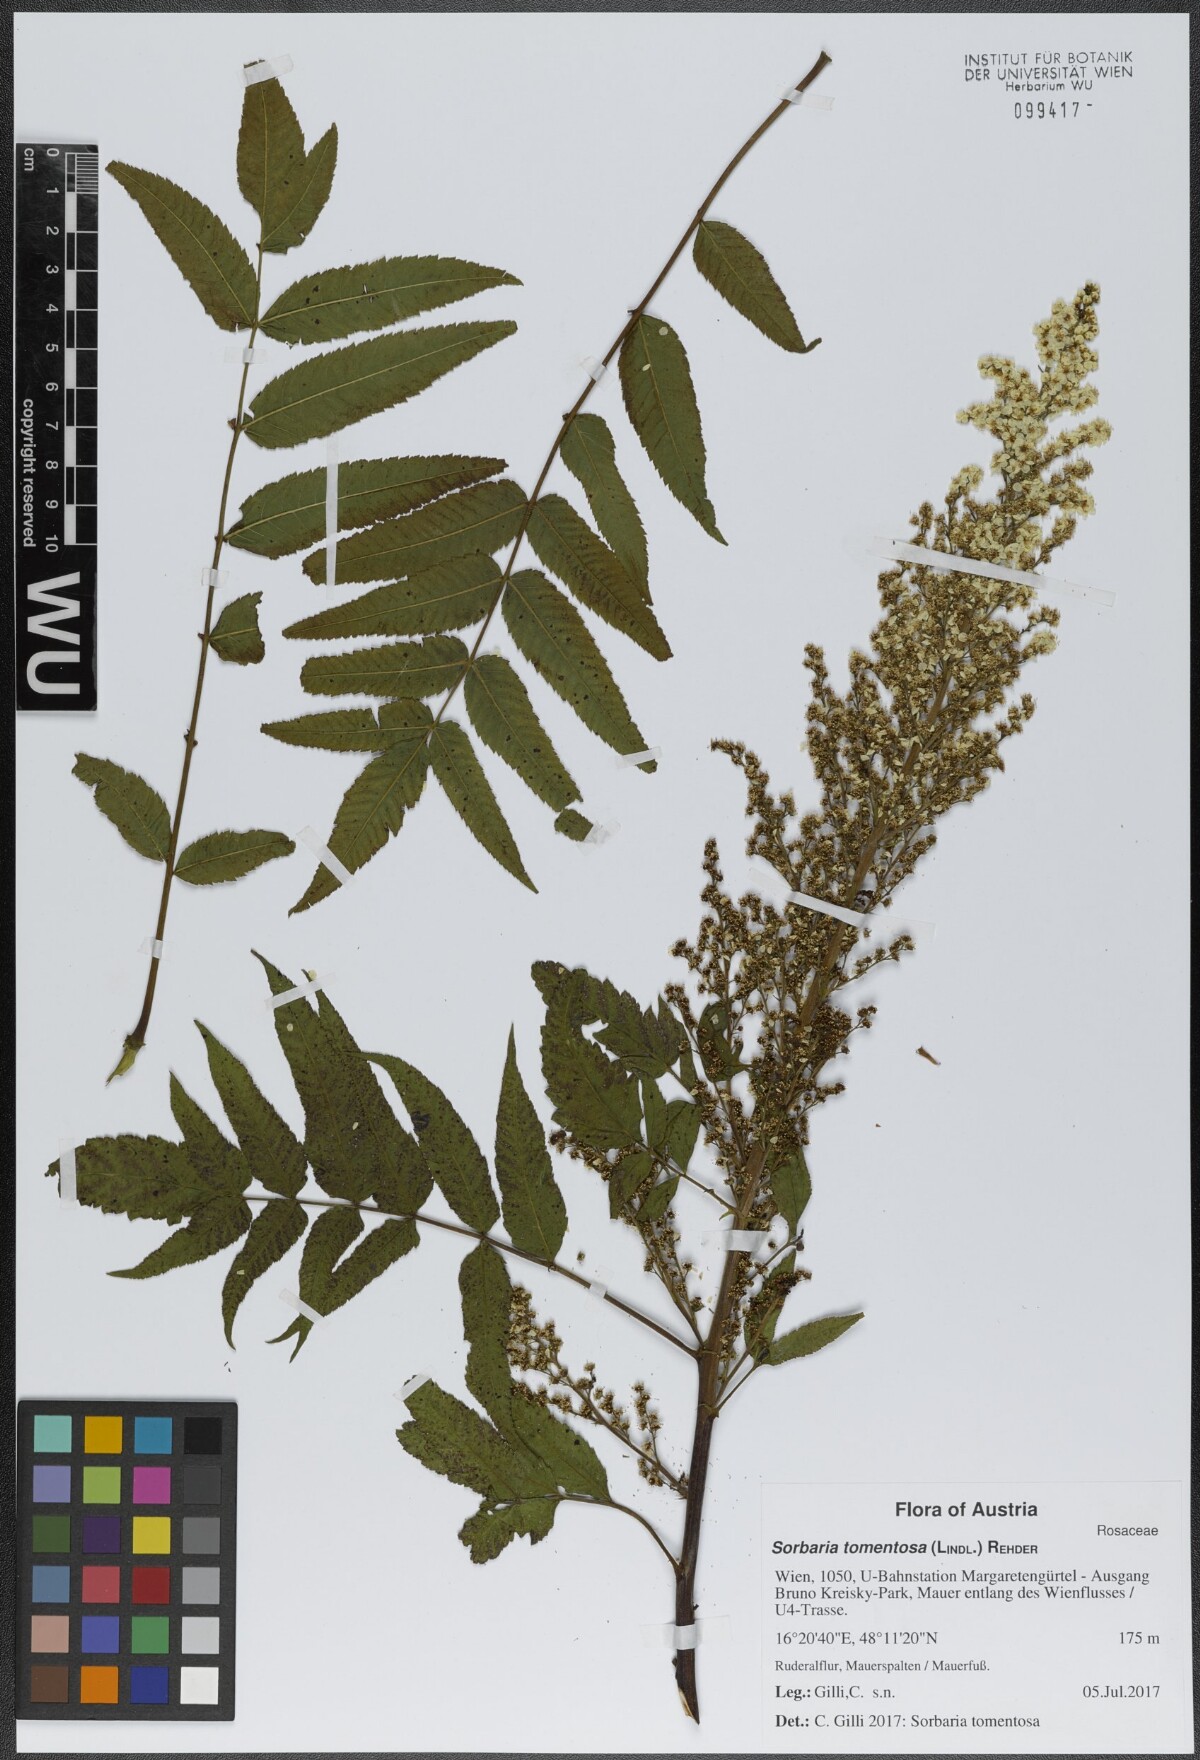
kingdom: Plantae
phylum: Tracheophyta
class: Magnoliopsida
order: Rosales
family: Rosaceae
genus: Sorbaria
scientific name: Sorbaria tomentosa
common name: Himalayan sorbaria
